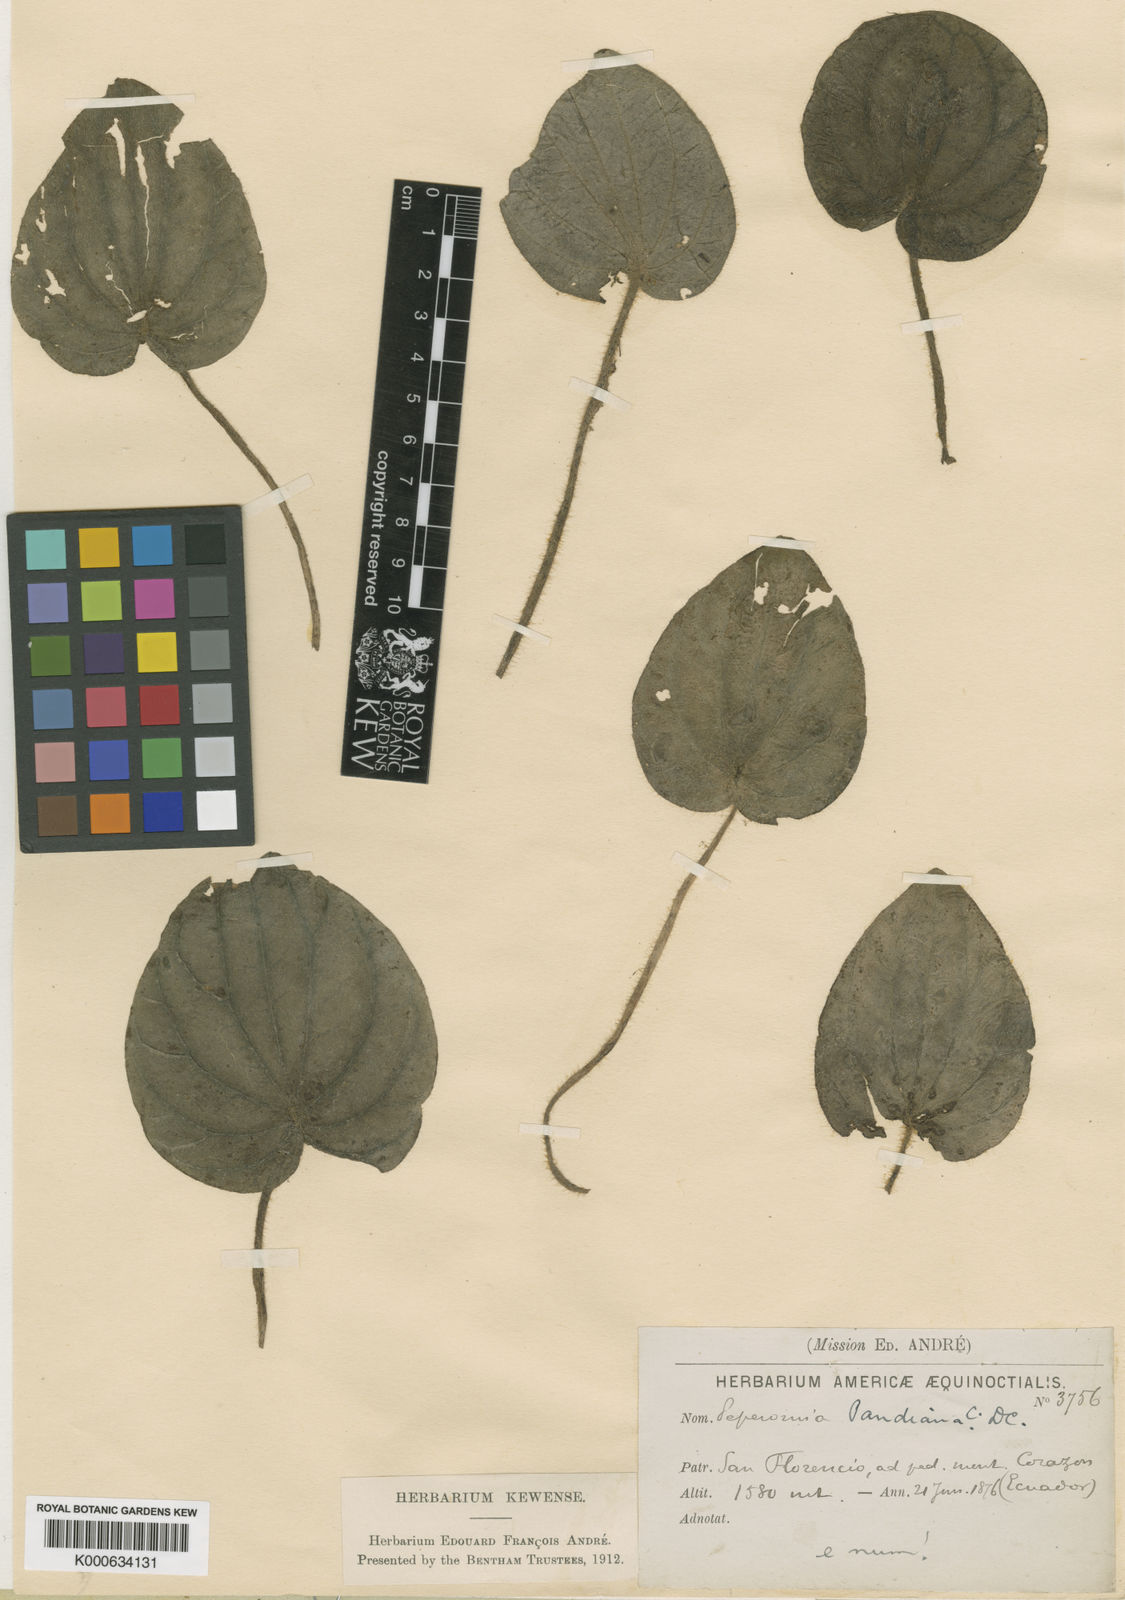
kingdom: Plantae
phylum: Tracheophyta
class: Magnoliopsida
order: Piperales
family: Piperaceae
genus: Peperomia
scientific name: Peperomia pandiana
